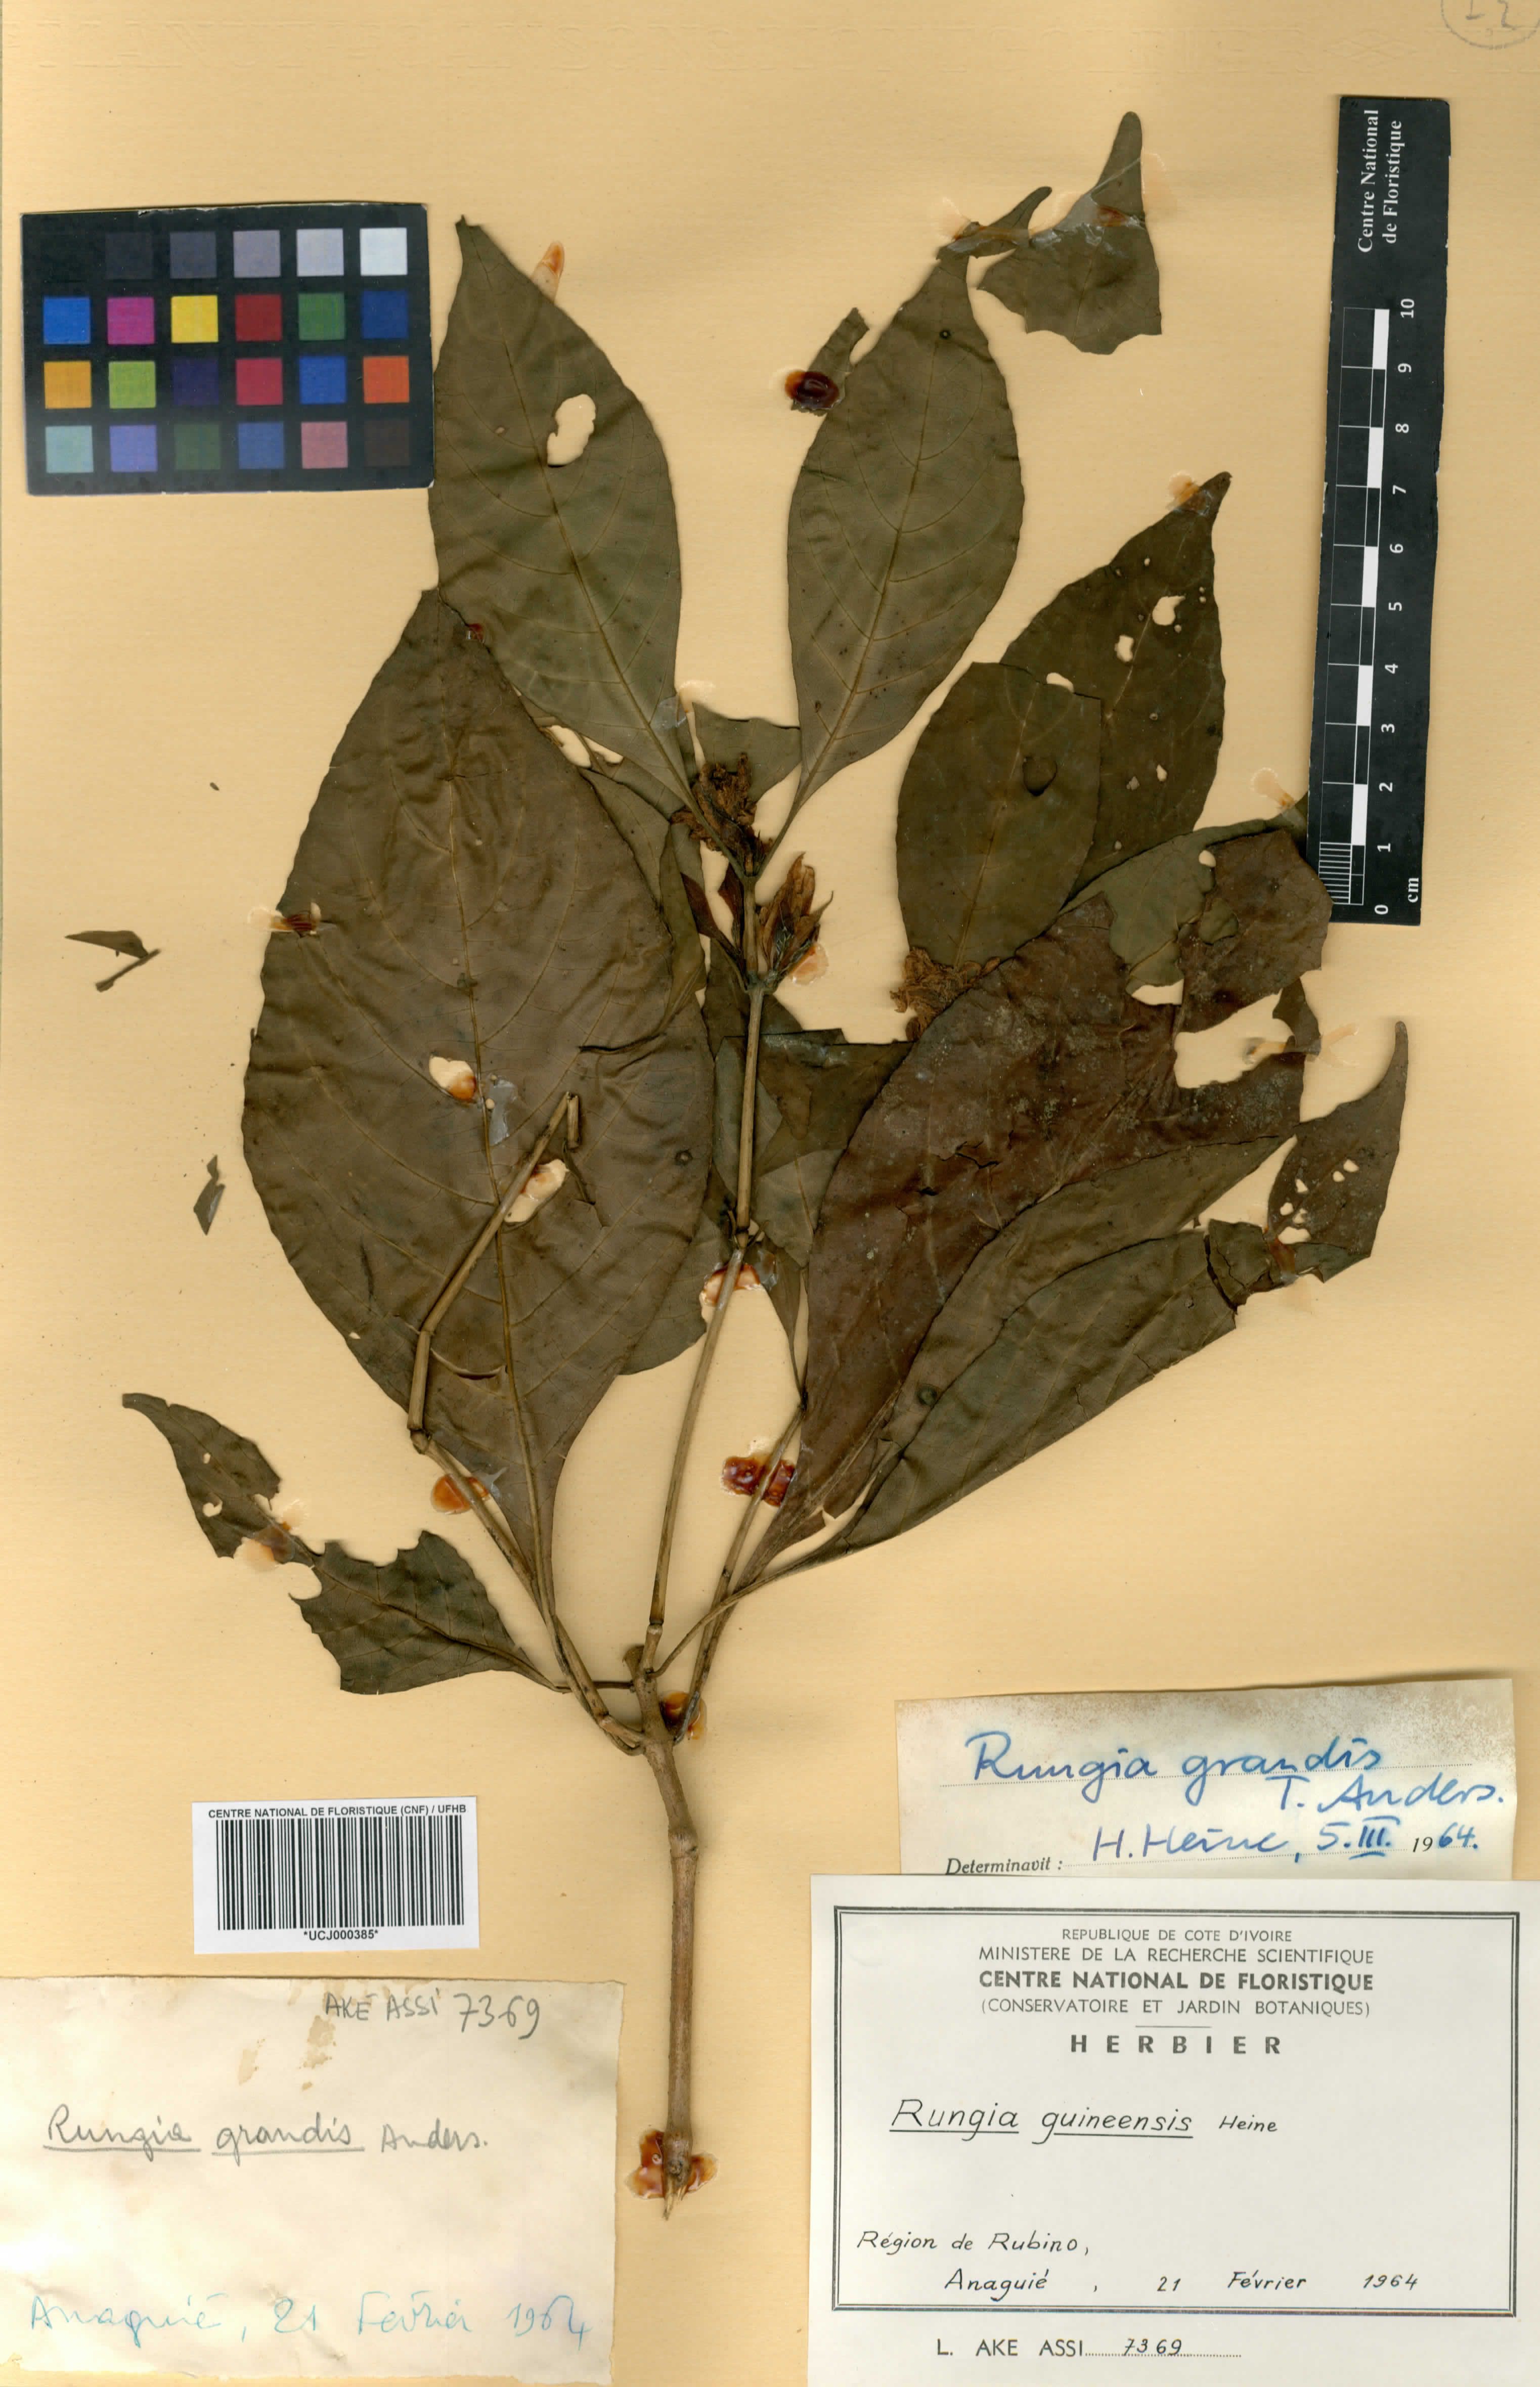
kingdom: Plantae
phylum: Tracheophyta
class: Magnoliopsida
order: Lamiales
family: Acanthaceae
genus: Justicia
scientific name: Justicia grandis
